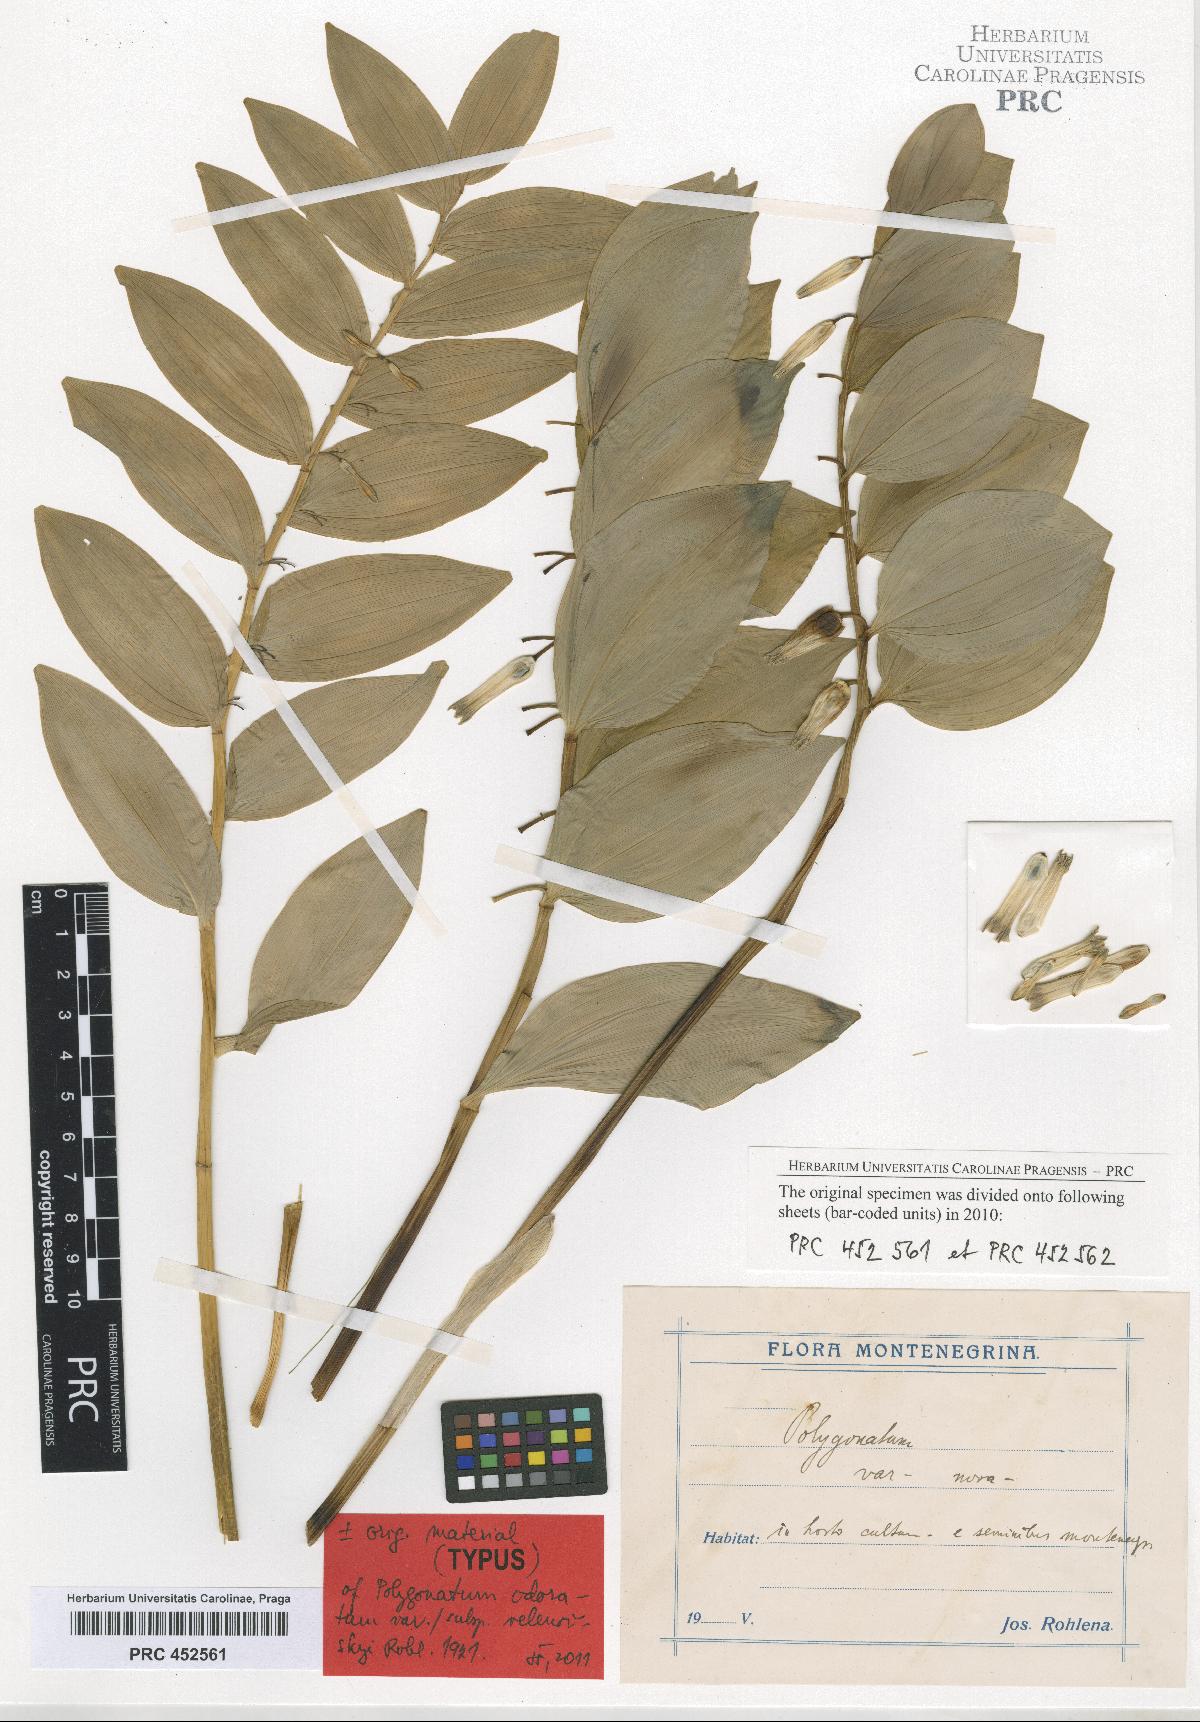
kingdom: Plantae
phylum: Tracheophyta
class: Liliopsida
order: Asparagales
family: Asparagaceae
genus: Polygonatum
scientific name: Polygonatum velenovskyi
